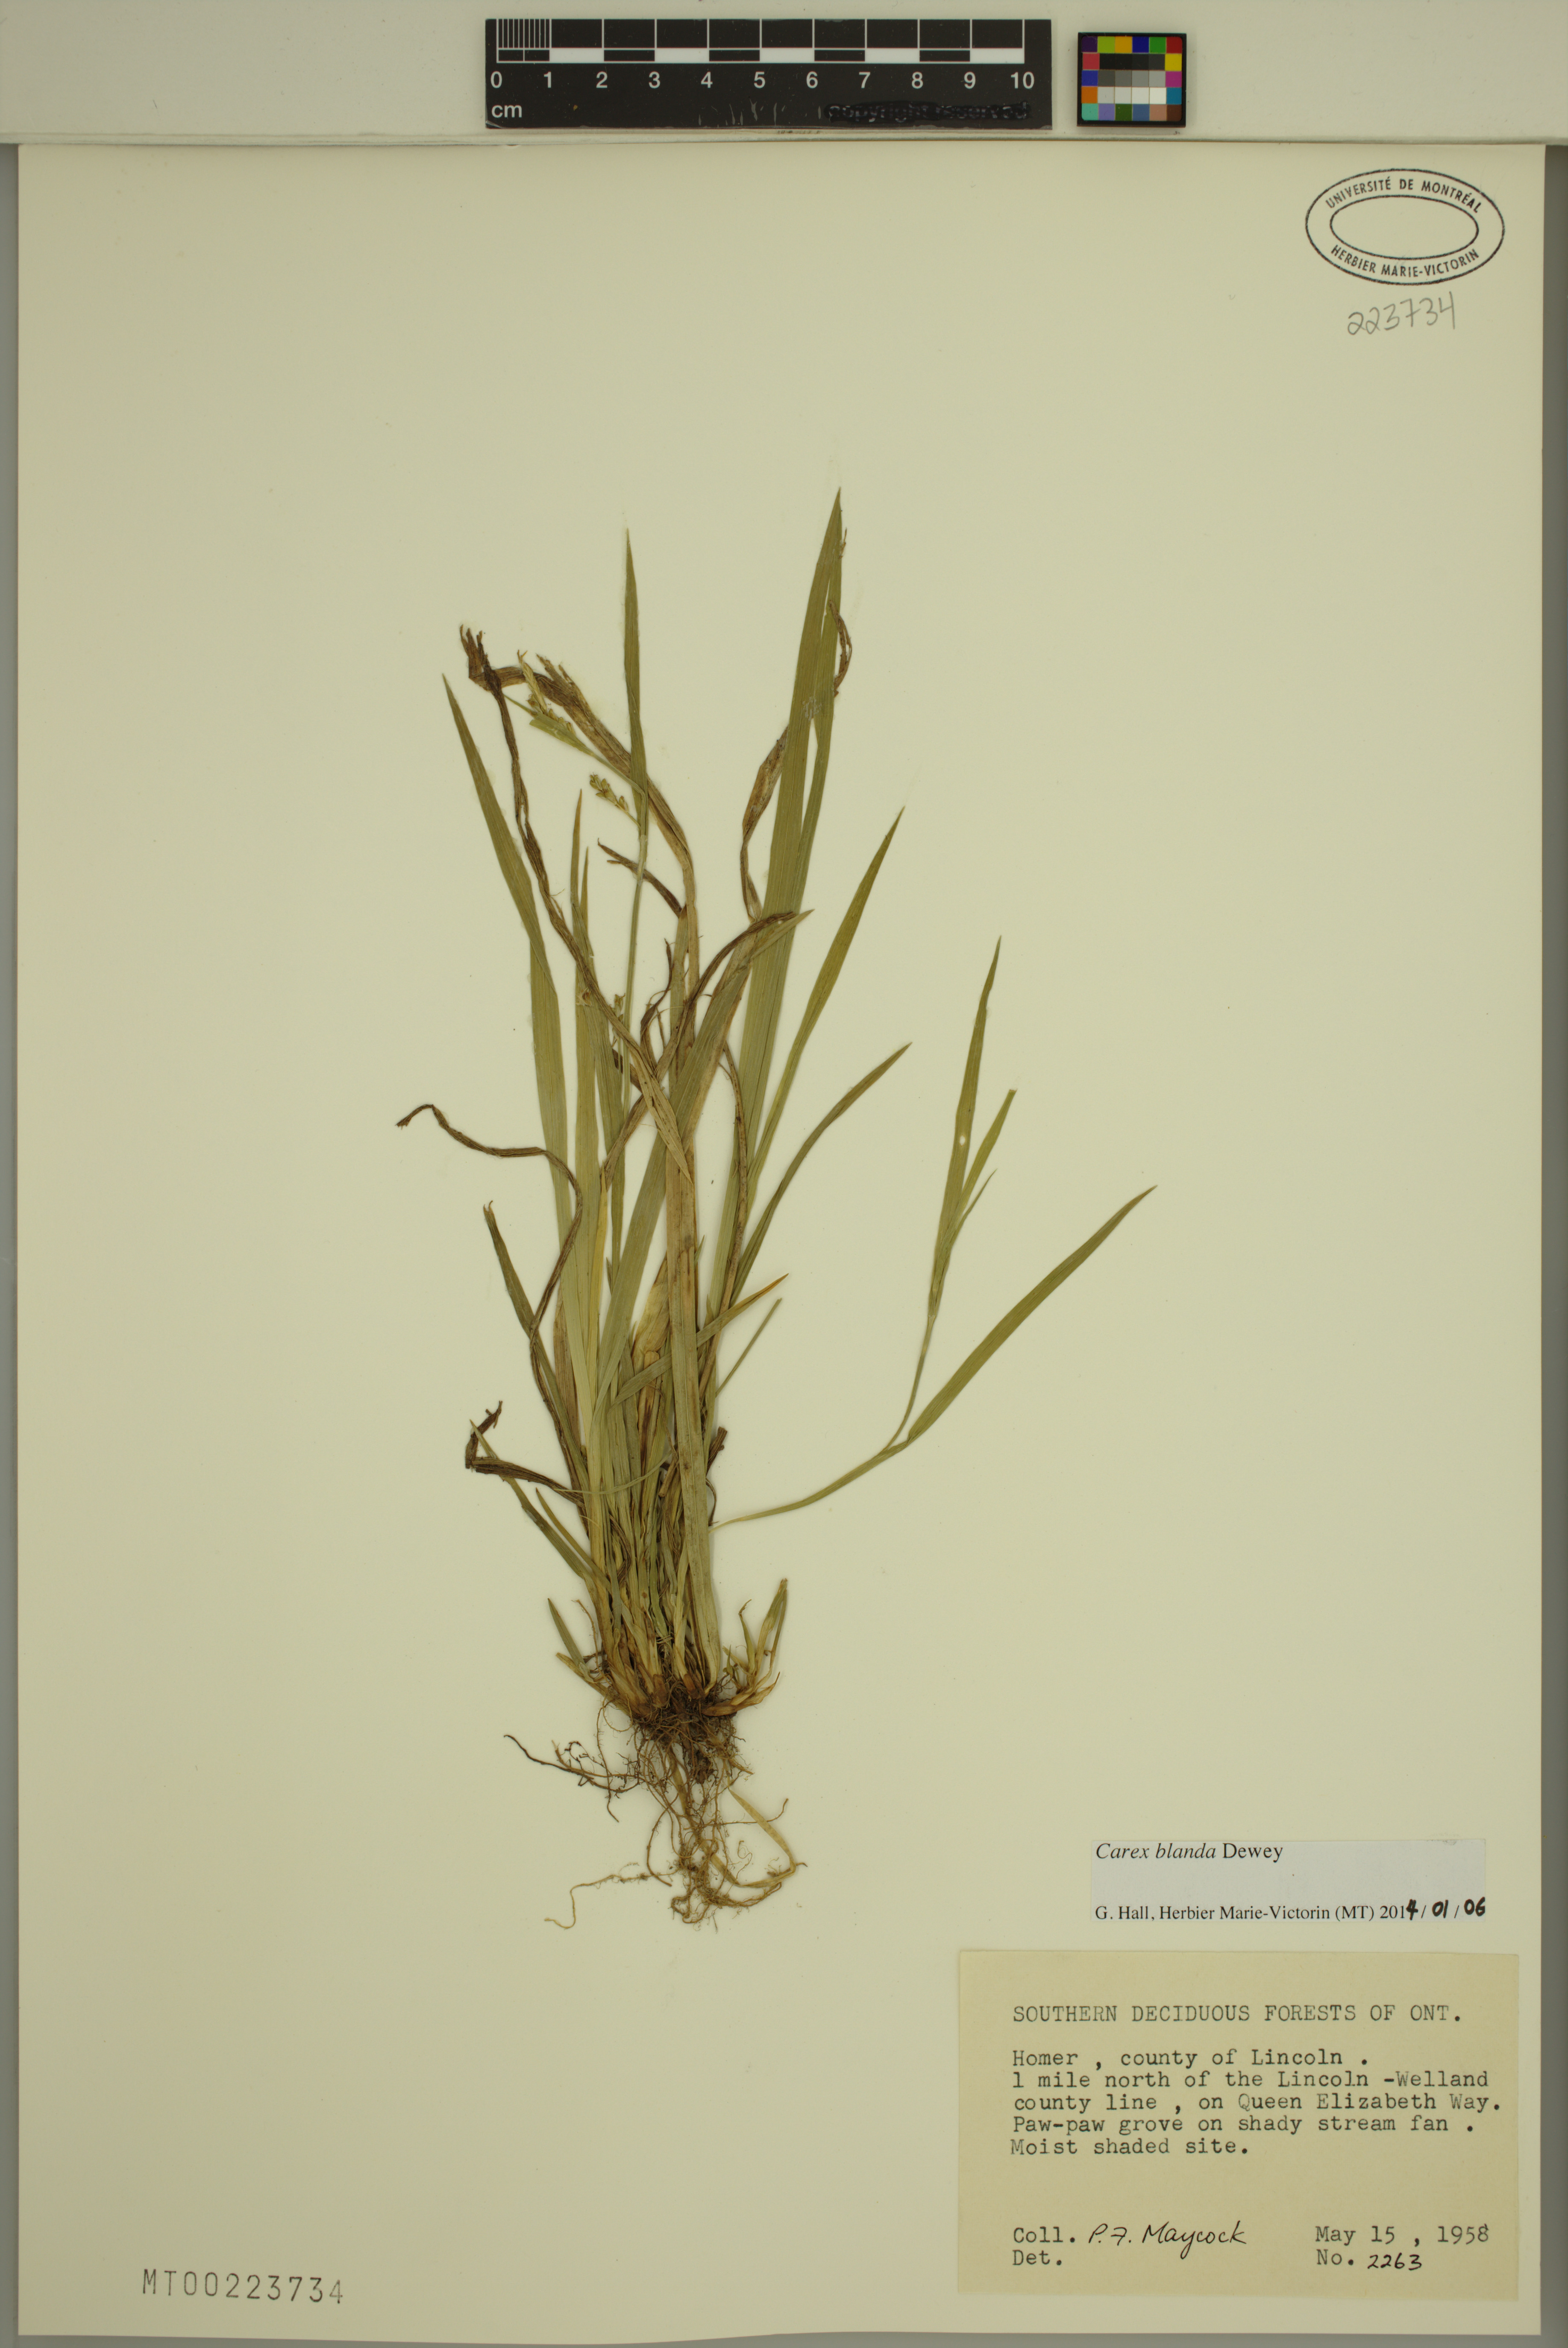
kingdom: Plantae
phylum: Tracheophyta
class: Liliopsida
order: Poales
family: Cyperaceae
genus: Carex
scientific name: Carex blanda
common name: Bland sedge
